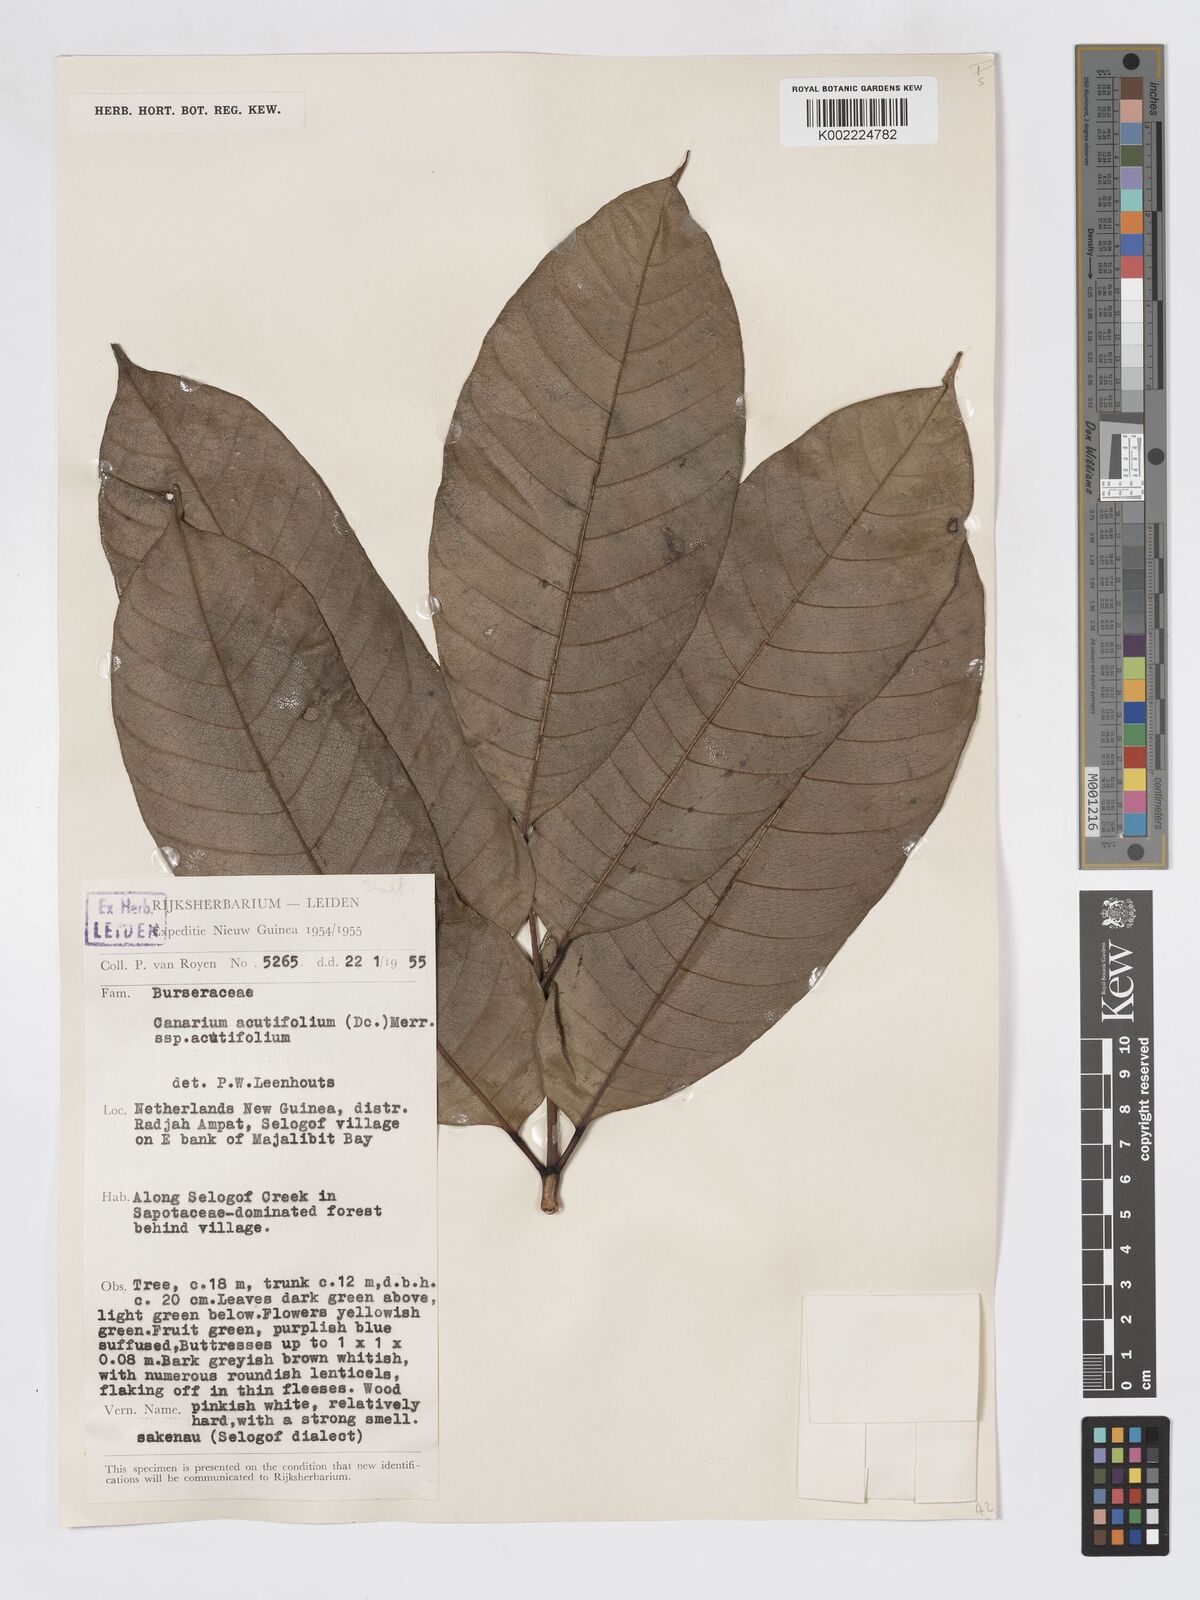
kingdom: Plantae
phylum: Tracheophyta
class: Magnoliopsida
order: Sapindales
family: Burseraceae
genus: Canarium
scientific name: Canarium acutifolium
